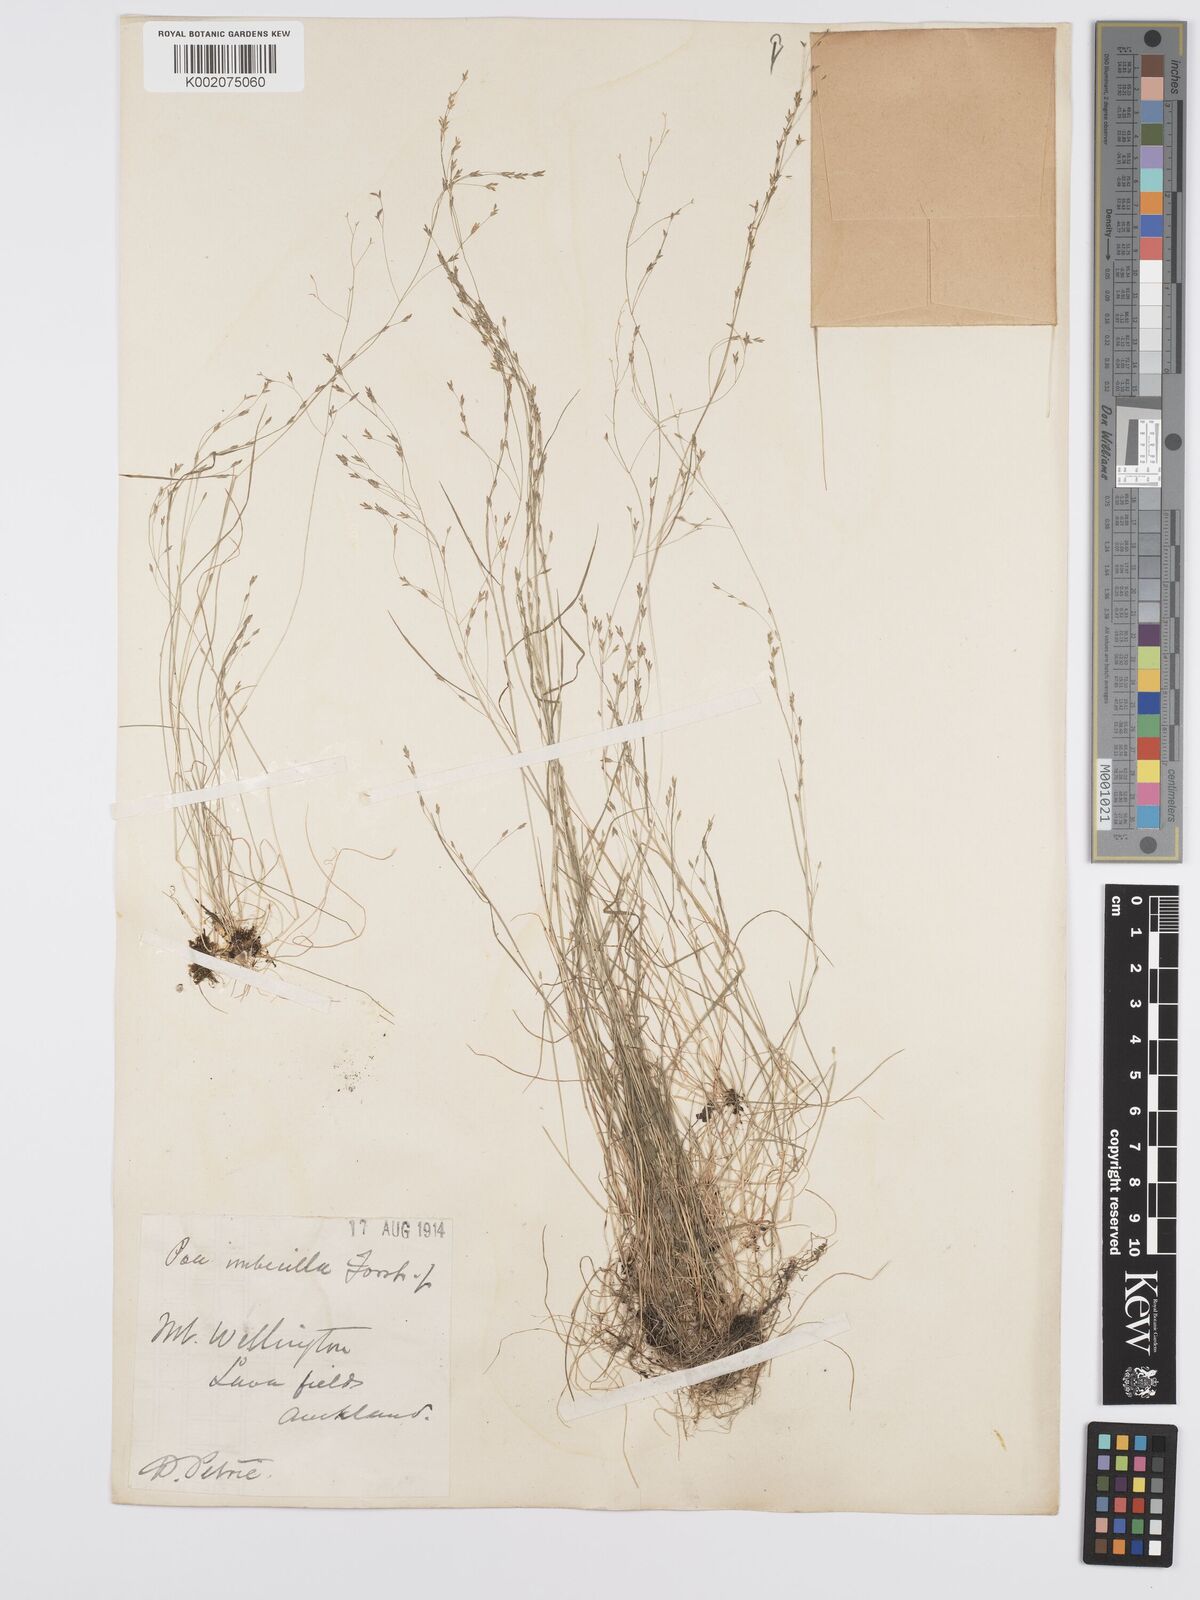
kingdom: Plantae
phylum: Tracheophyta
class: Liliopsida
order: Poales
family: Poaceae
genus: Poa
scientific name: Poa imbecilla
